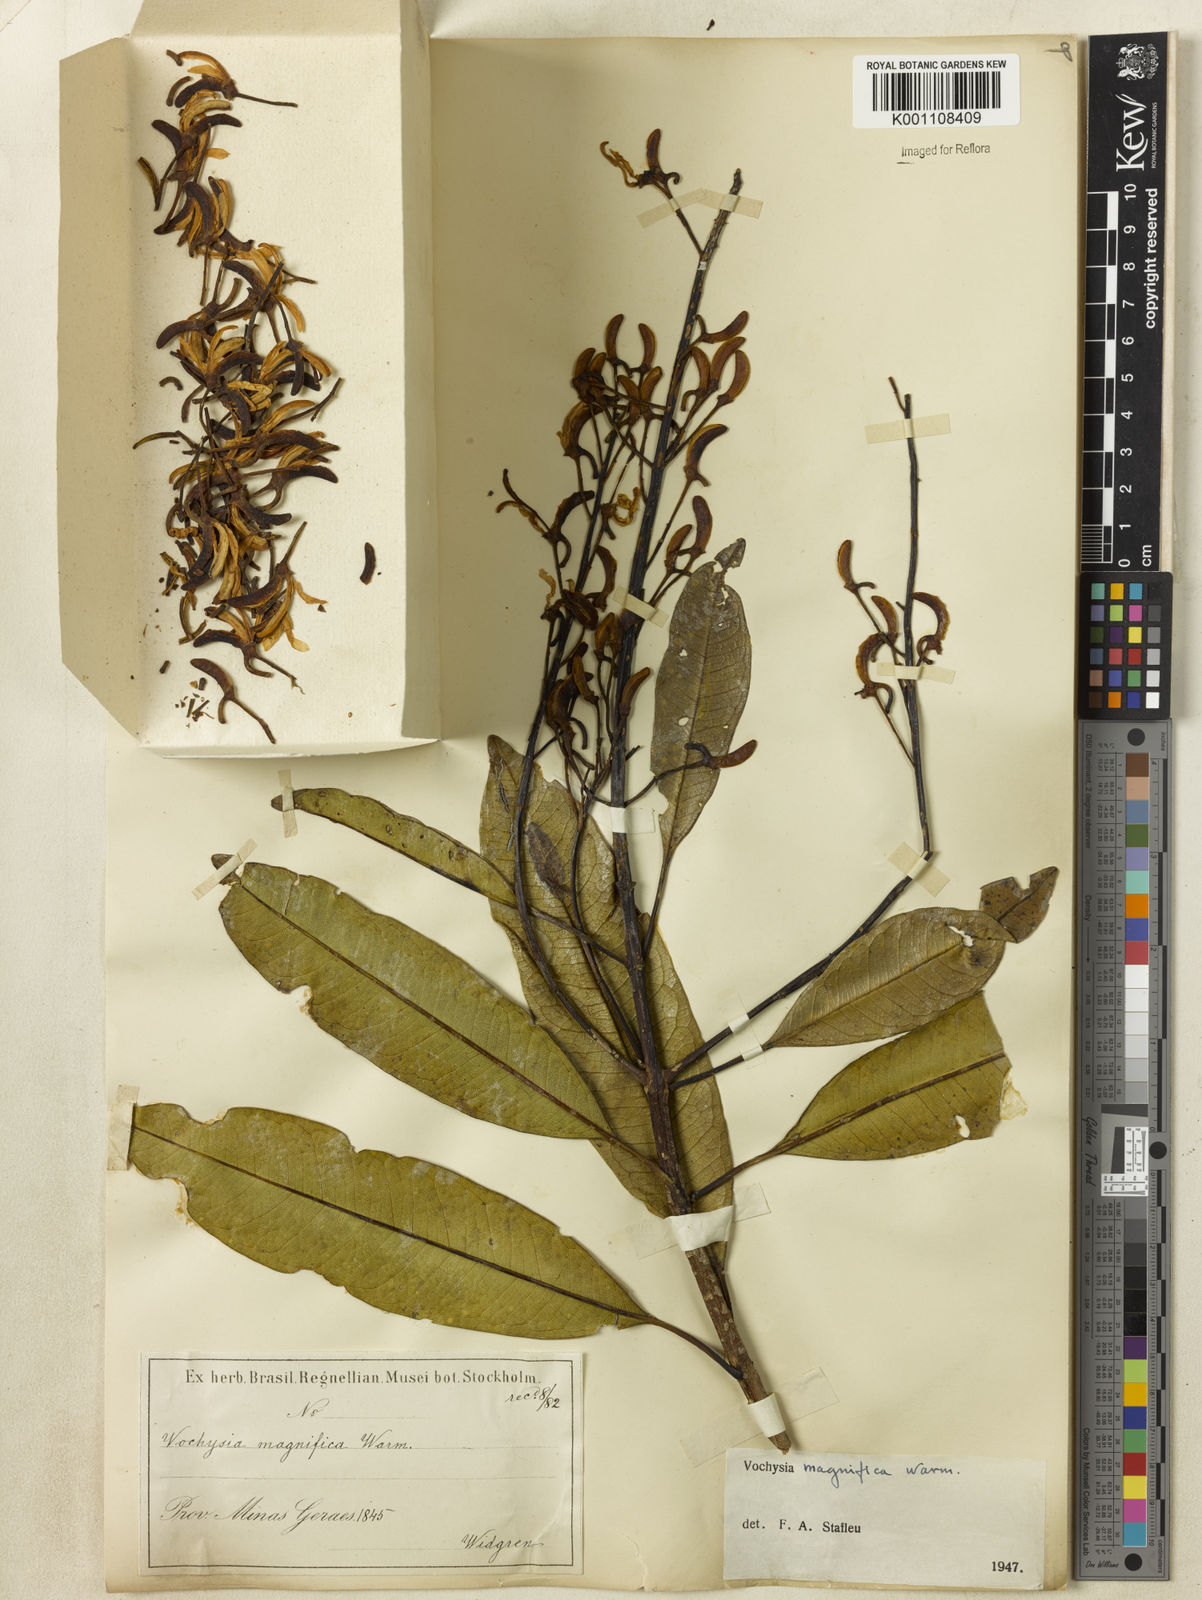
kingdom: Plantae
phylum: Tracheophyta
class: Magnoliopsida
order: Myrtales
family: Vochysiaceae
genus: Vochysia
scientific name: Vochysia magnifica
